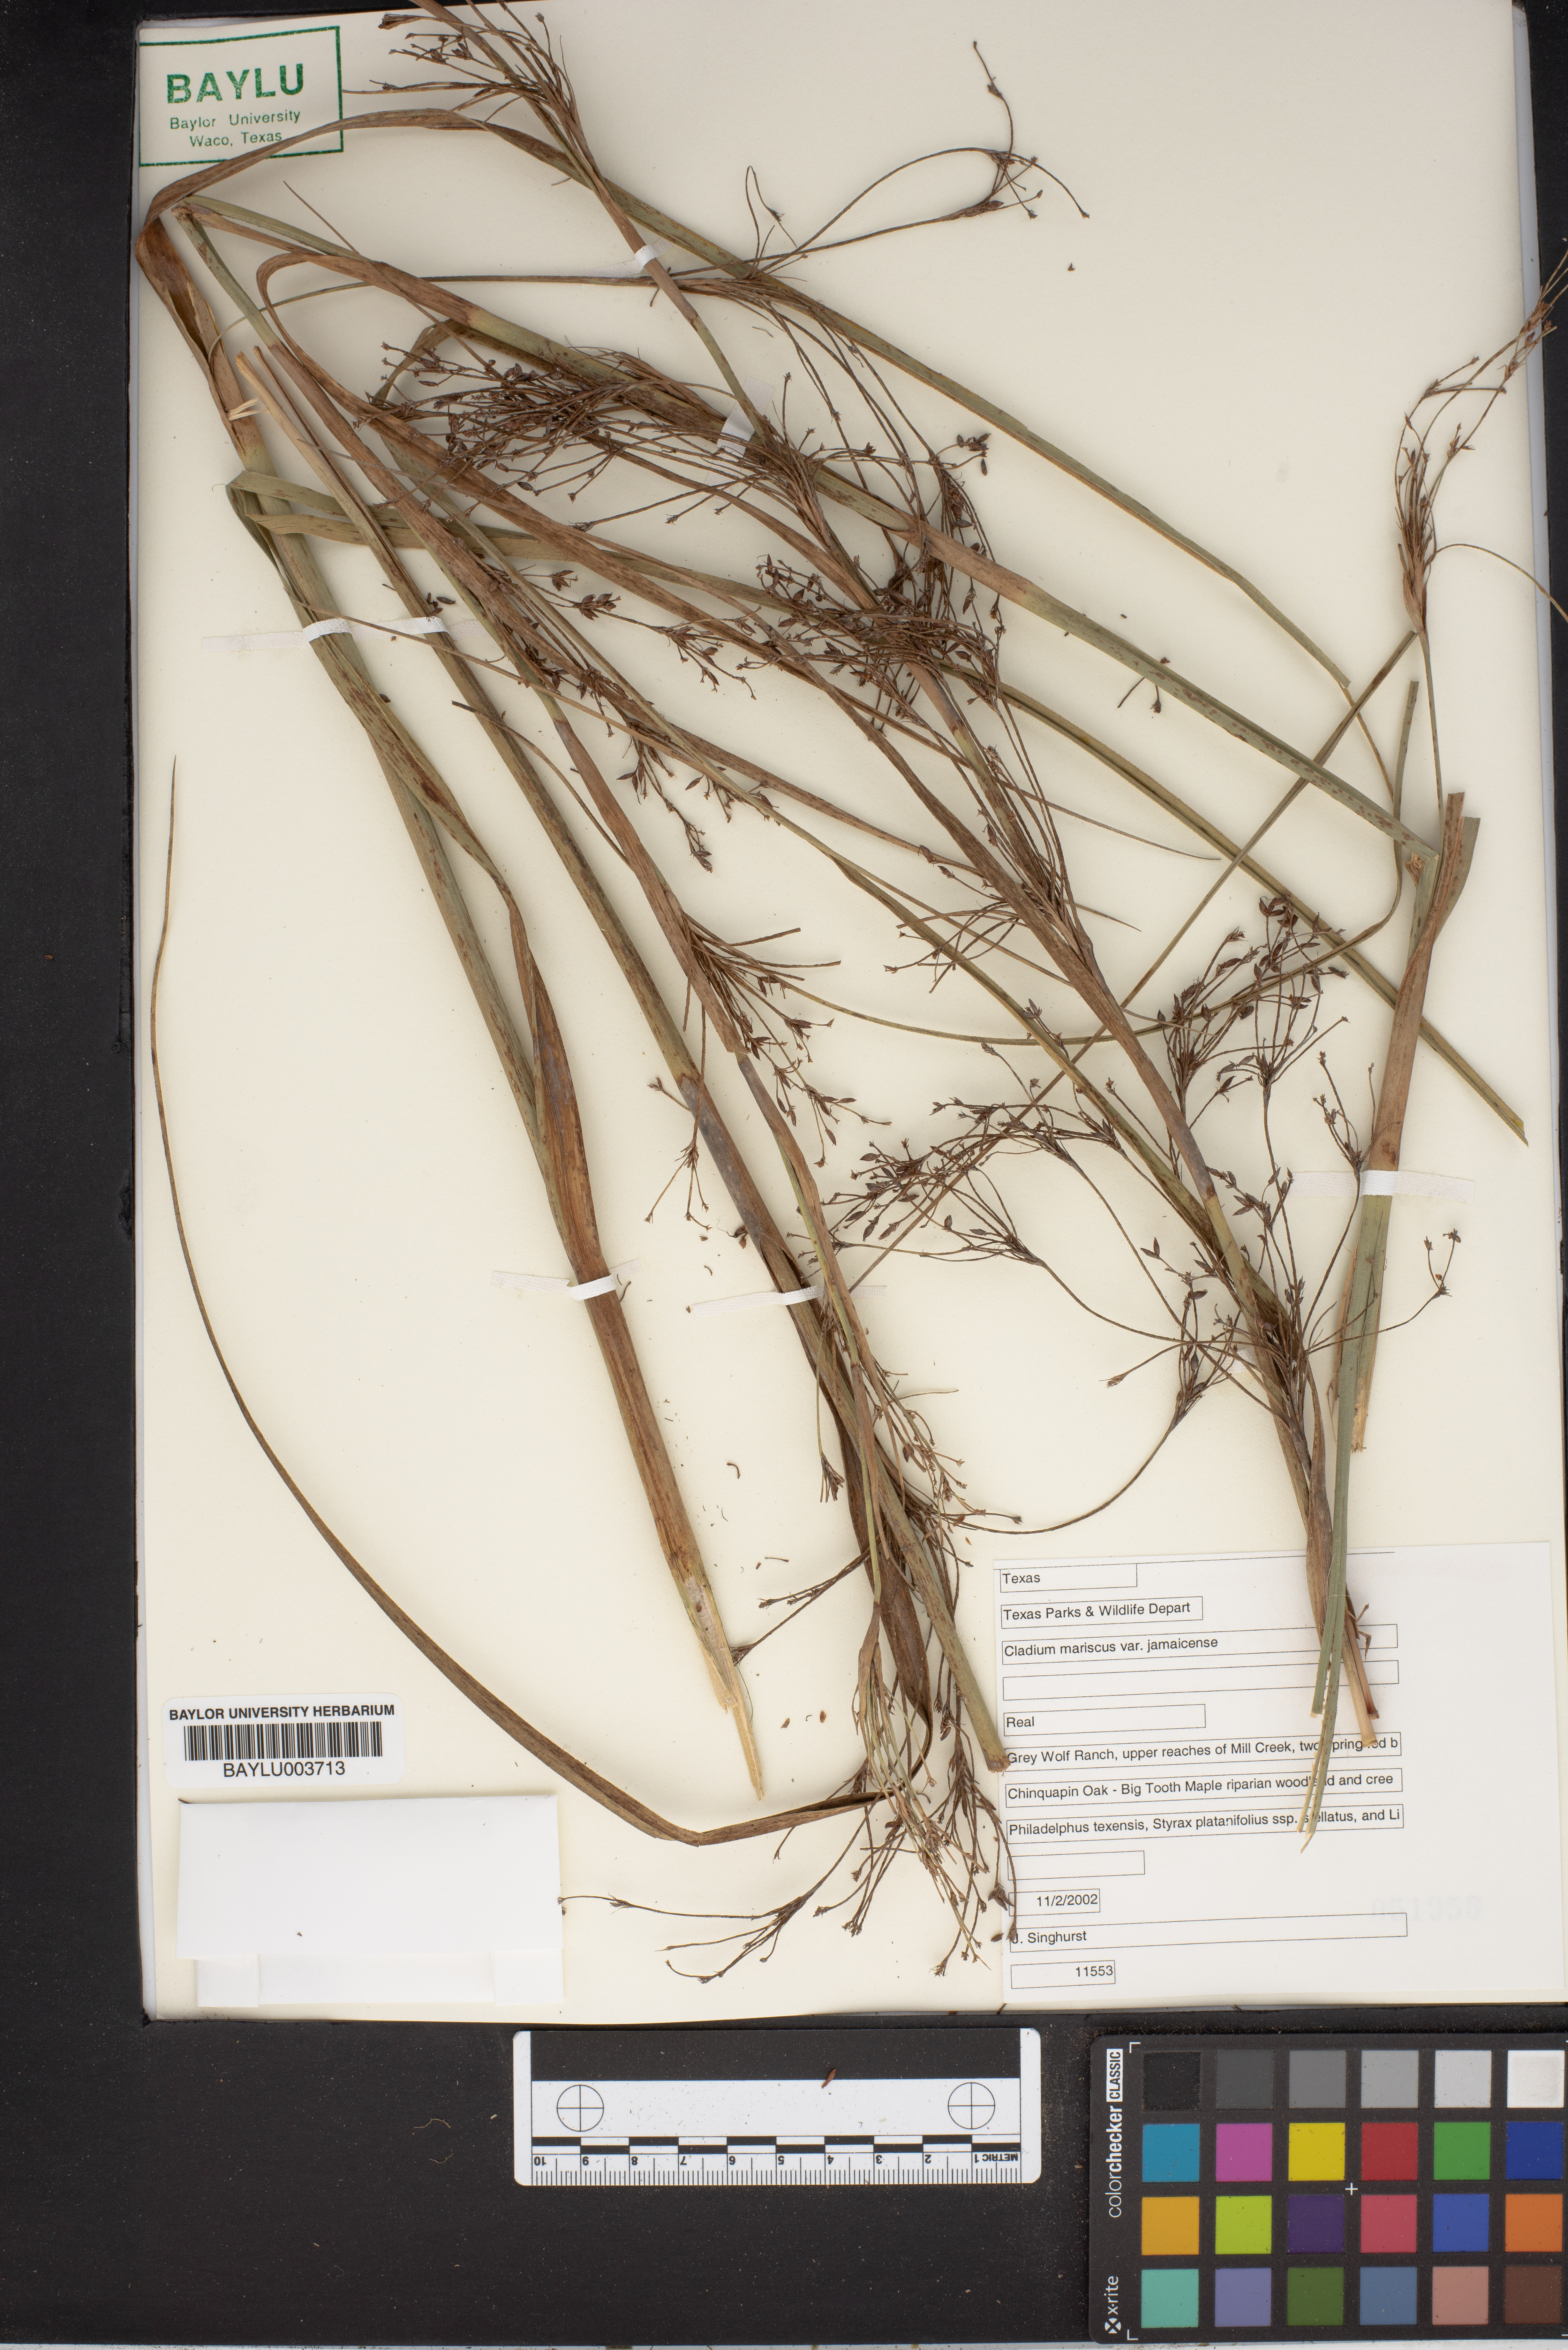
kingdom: Plantae
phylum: Tracheophyta
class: Liliopsida
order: Poales
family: Cyperaceae
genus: Cladium
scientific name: Cladium mariscus
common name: Great fen-sedge
